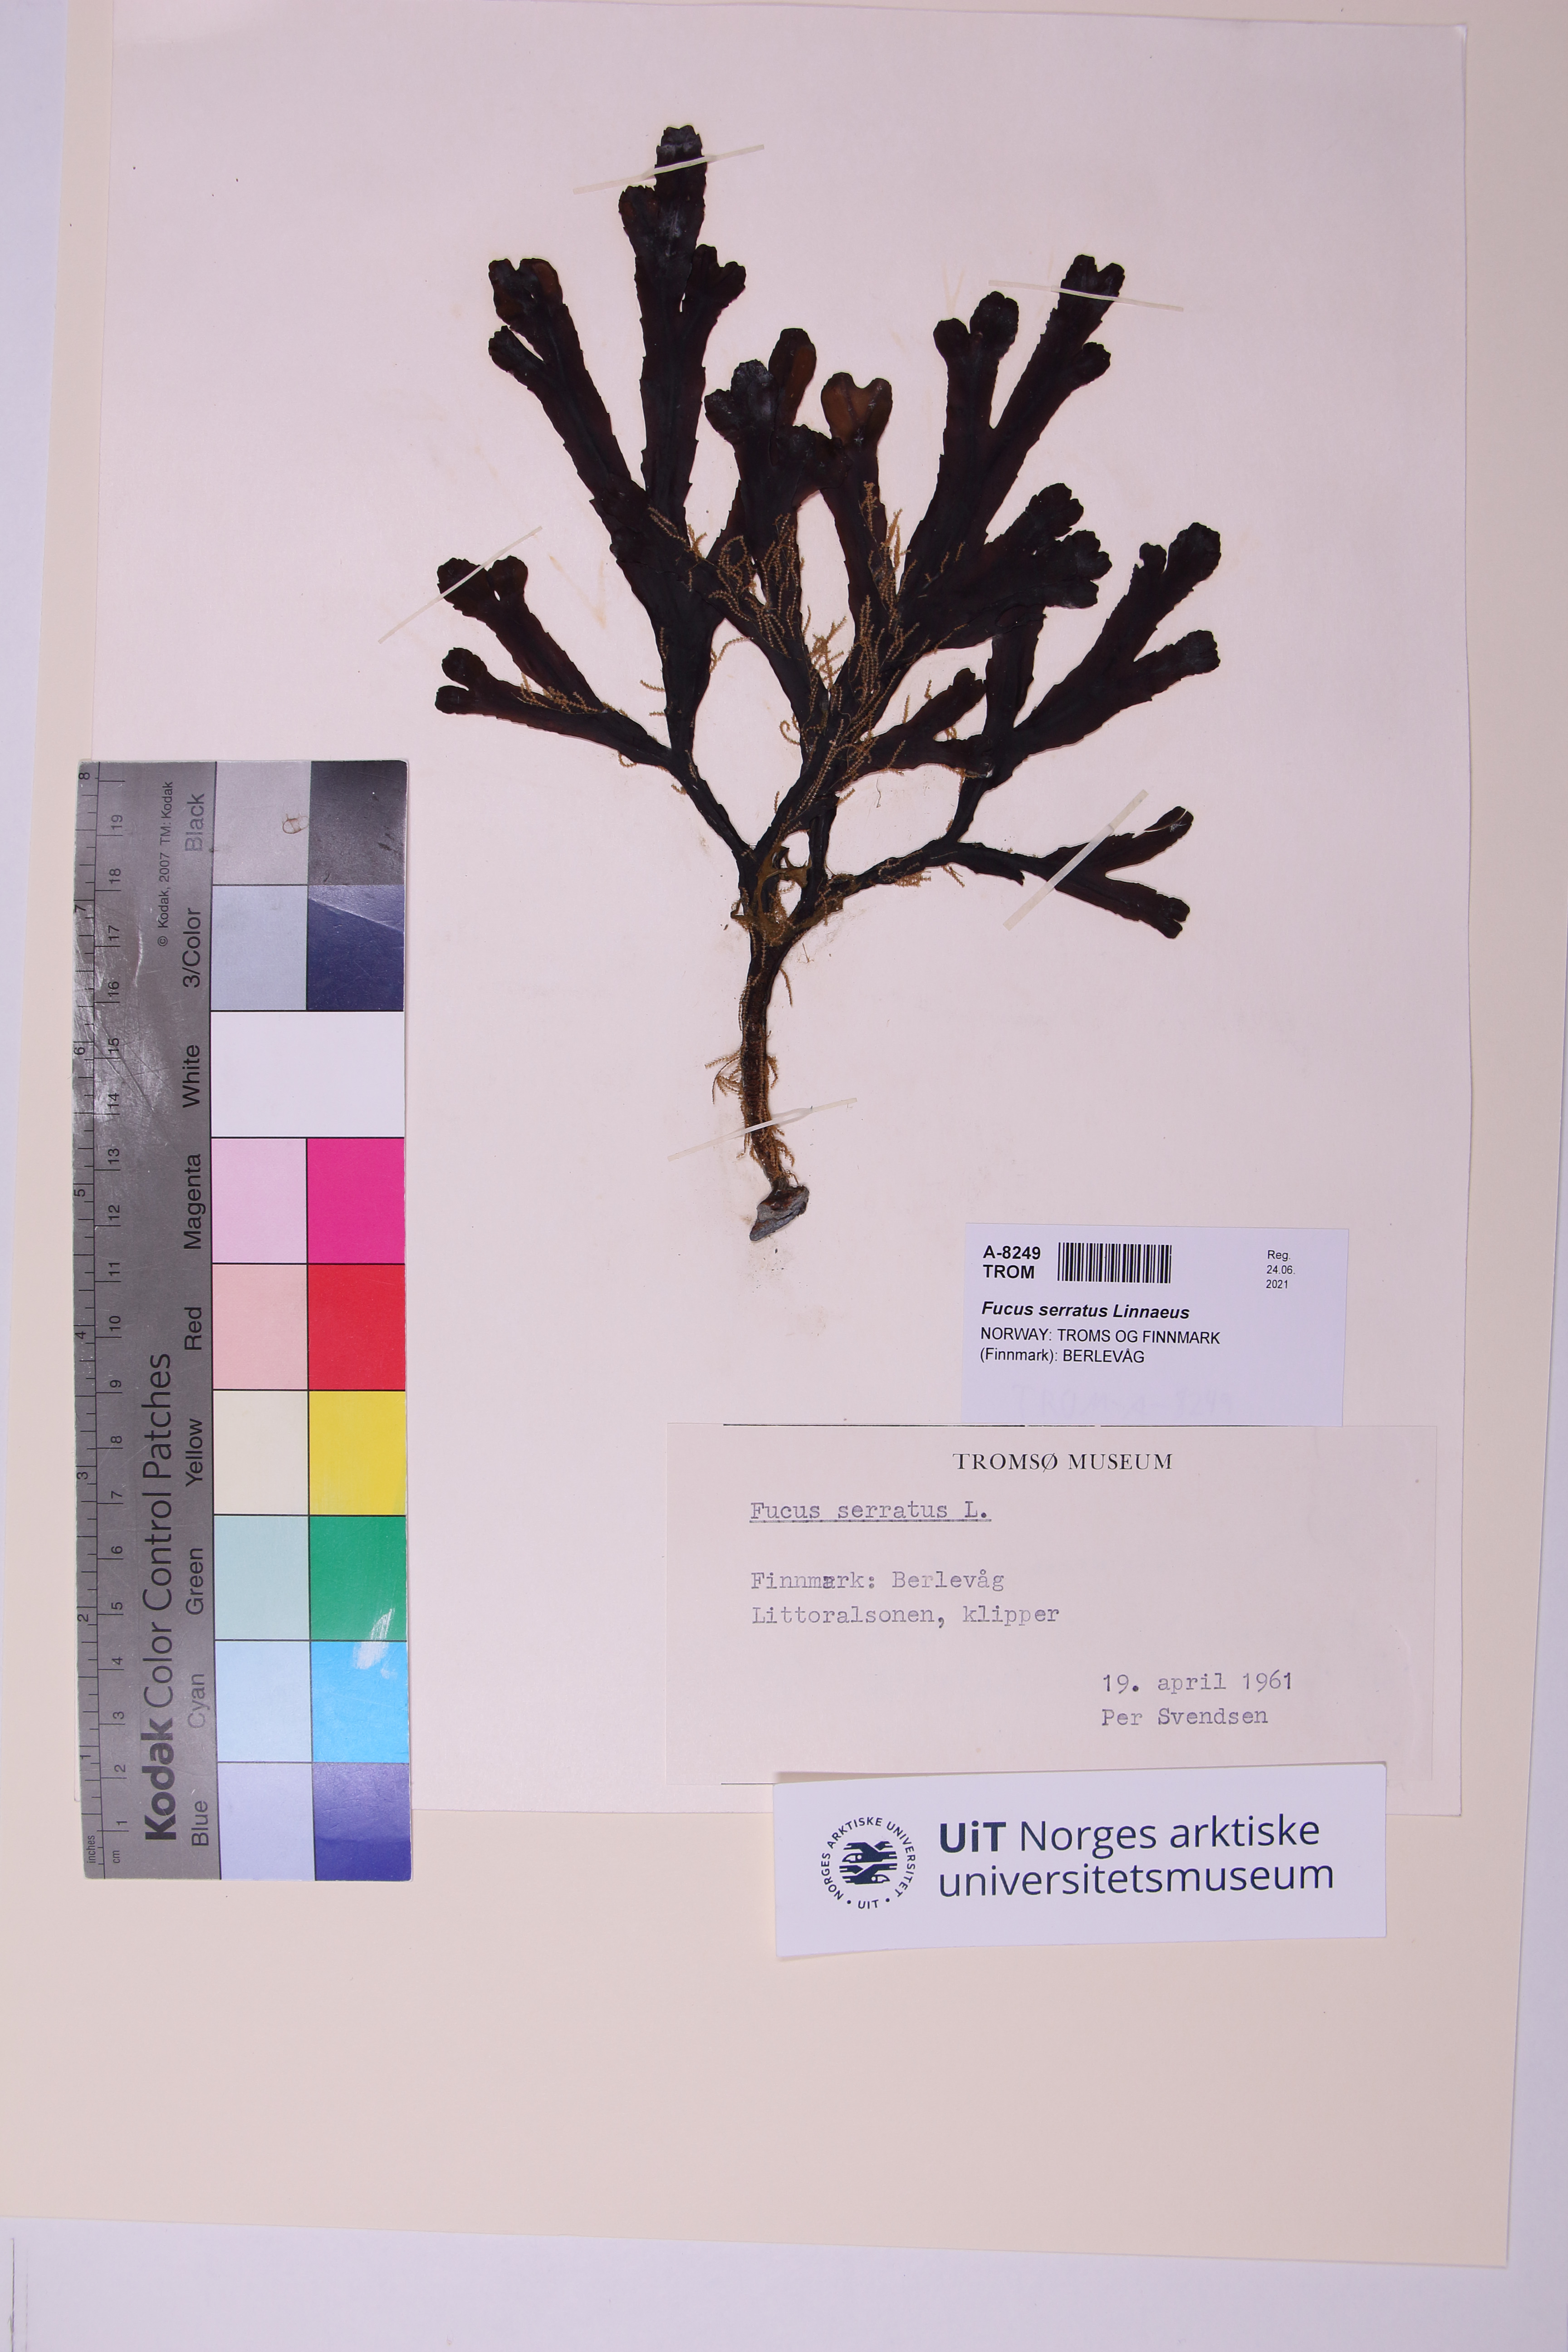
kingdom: Chromista
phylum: Ochrophyta
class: Phaeophyceae
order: Fucales
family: Fucaceae
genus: Fucus
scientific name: Fucus serratus
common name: Toothed wrack
